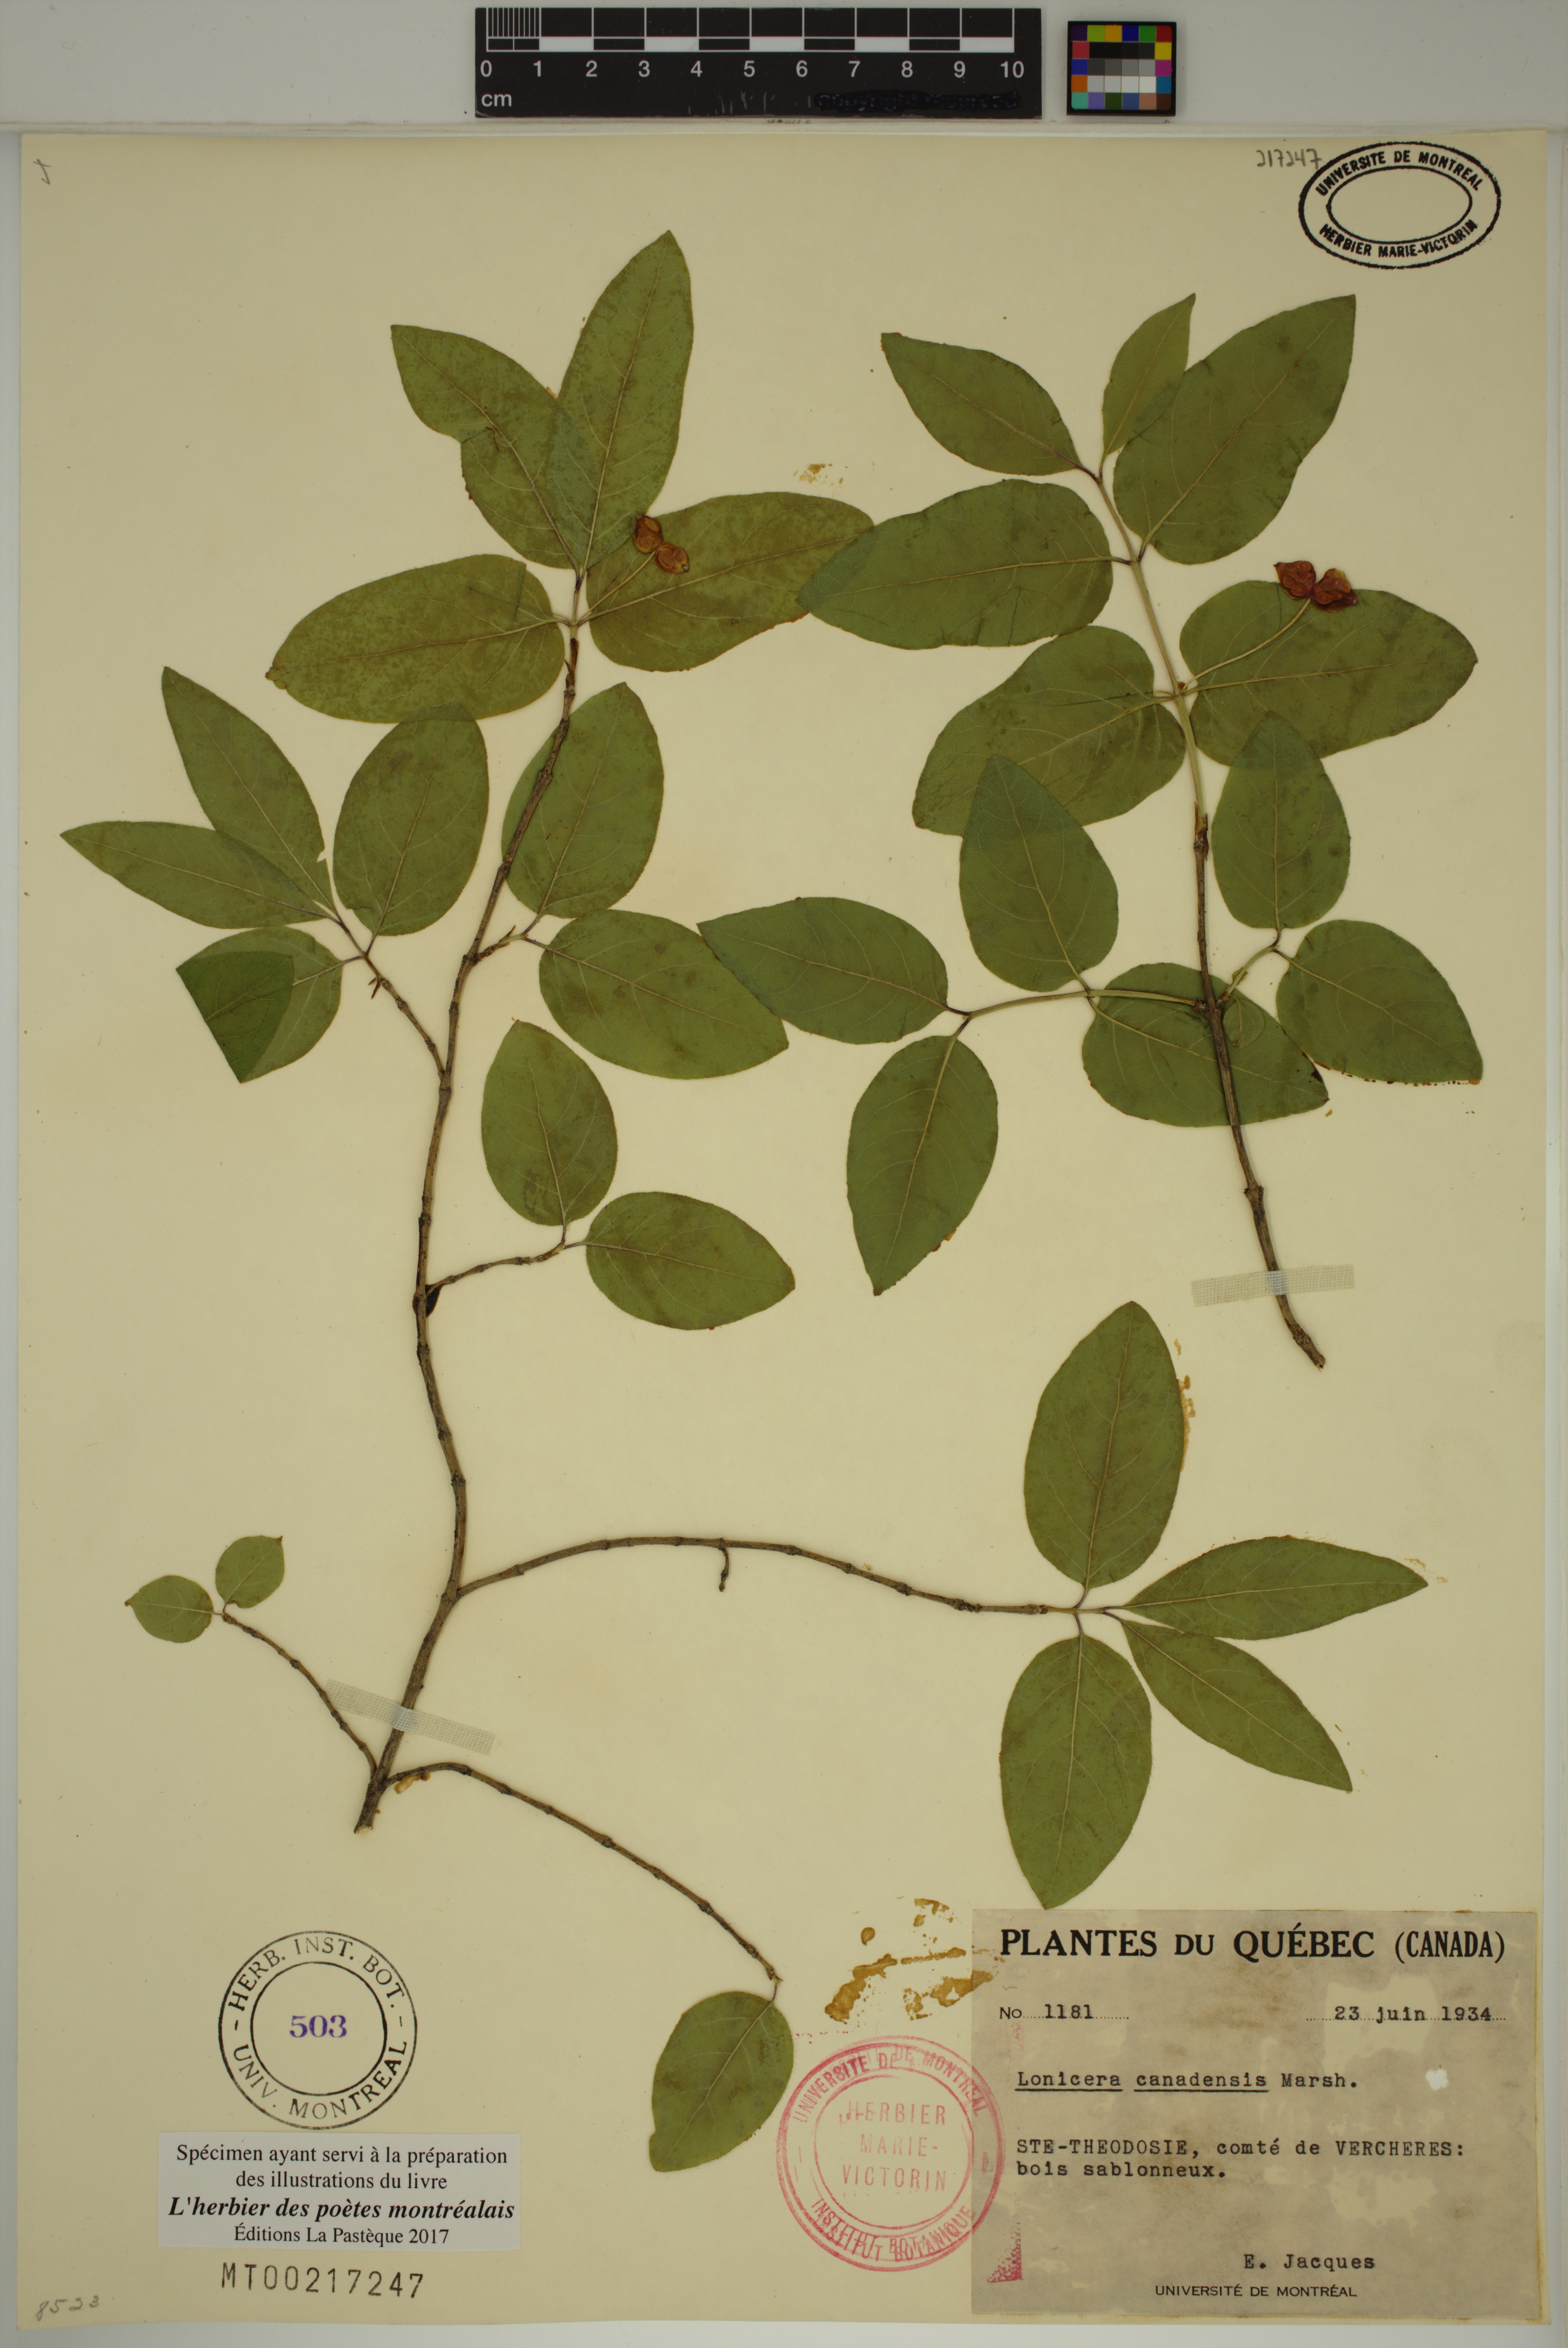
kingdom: Plantae
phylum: Tracheophyta
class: Magnoliopsida
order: Dipsacales
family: Caprifoliaceae
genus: Lonicera
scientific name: Lonicera canadensis
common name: American fly-honeysuckle
